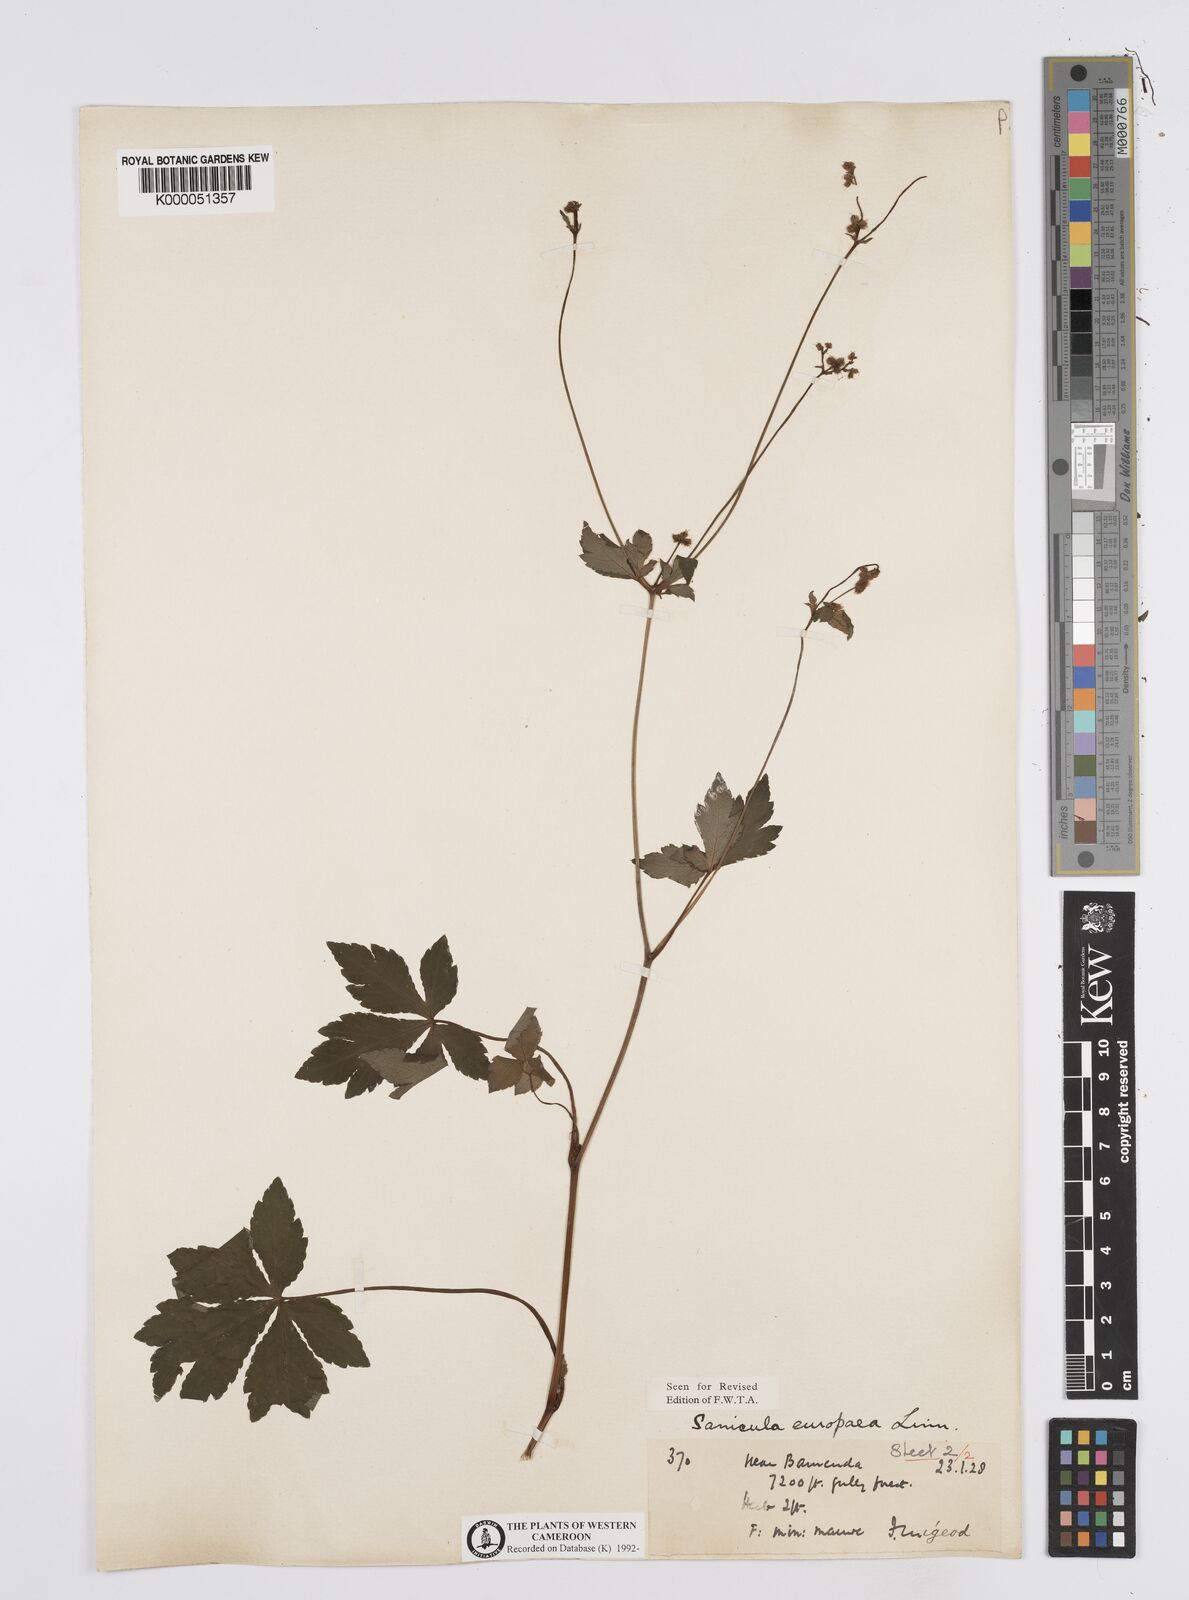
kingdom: Plantae
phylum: Tracheophyta
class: Magnoliopsida
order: Apiales
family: Apiaceae
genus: Sanicula
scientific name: Sanicula
